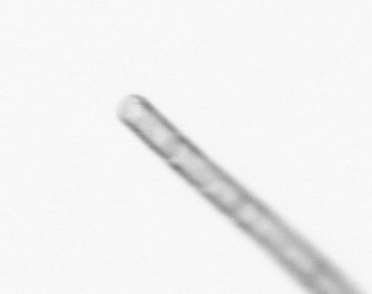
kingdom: Chromista
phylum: Ochrophyta
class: Bacillariophyceae
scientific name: Bacillariophyceae
